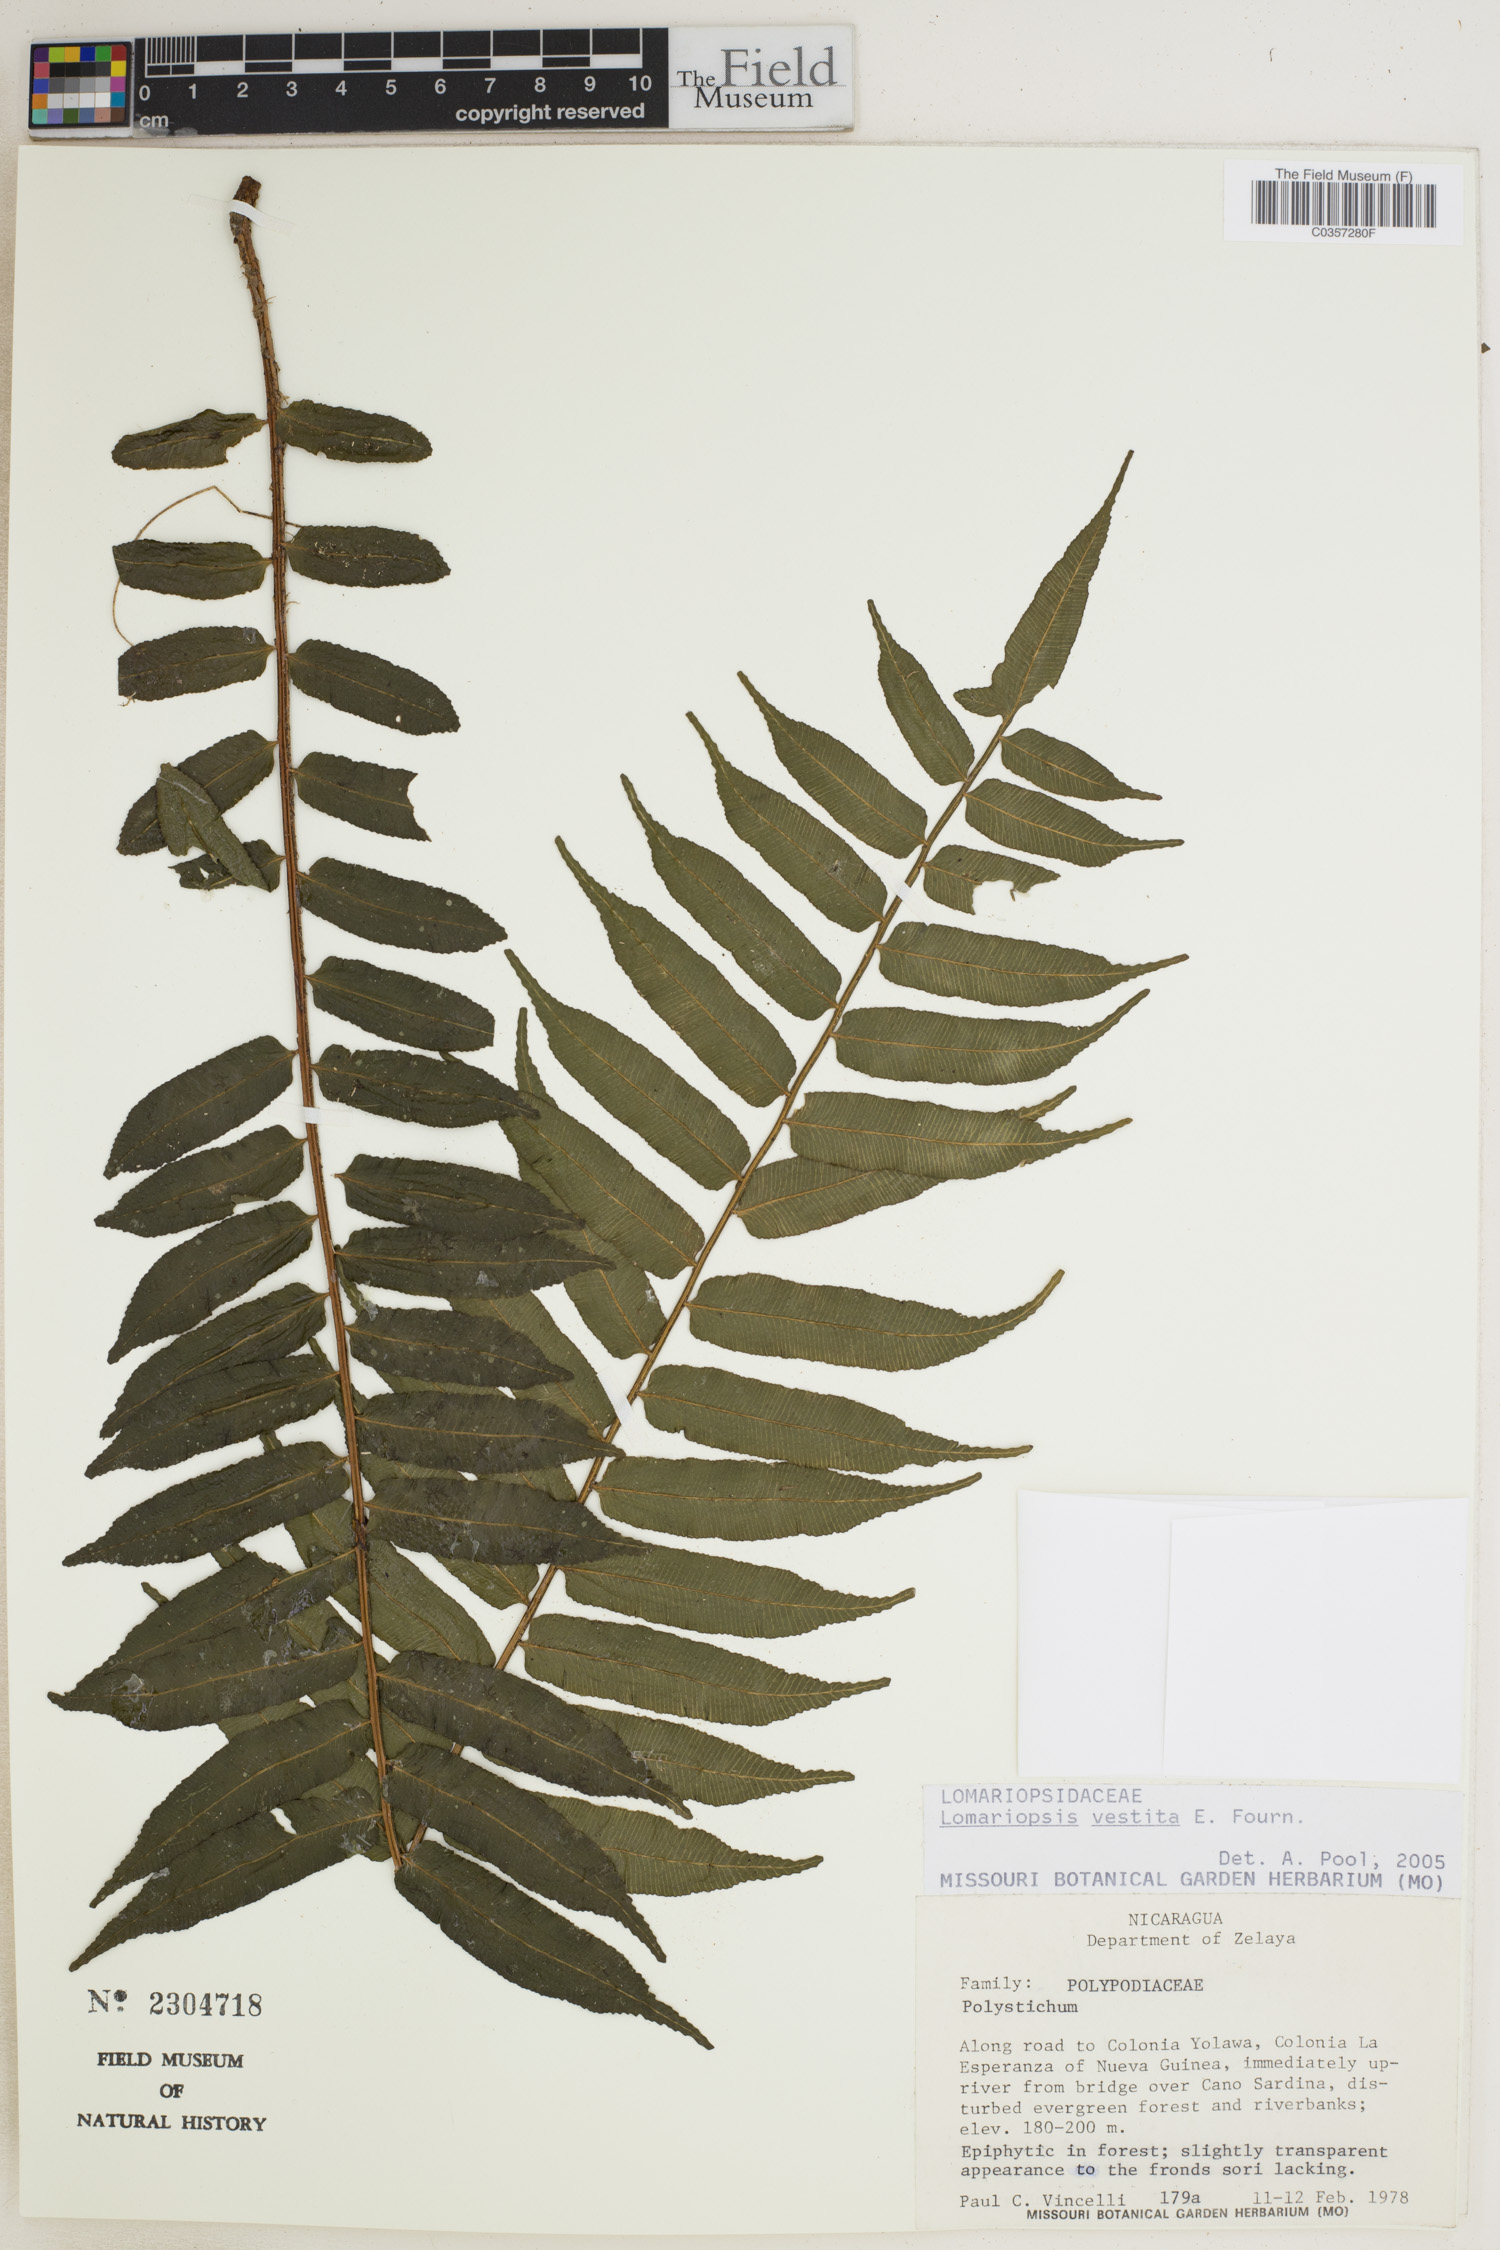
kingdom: Plantae
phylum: Tracheophyta
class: Polypodiopsida
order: Polypodiales
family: Lomariopsidaceae
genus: Lomariopsis
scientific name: Lomariopsis vestita
